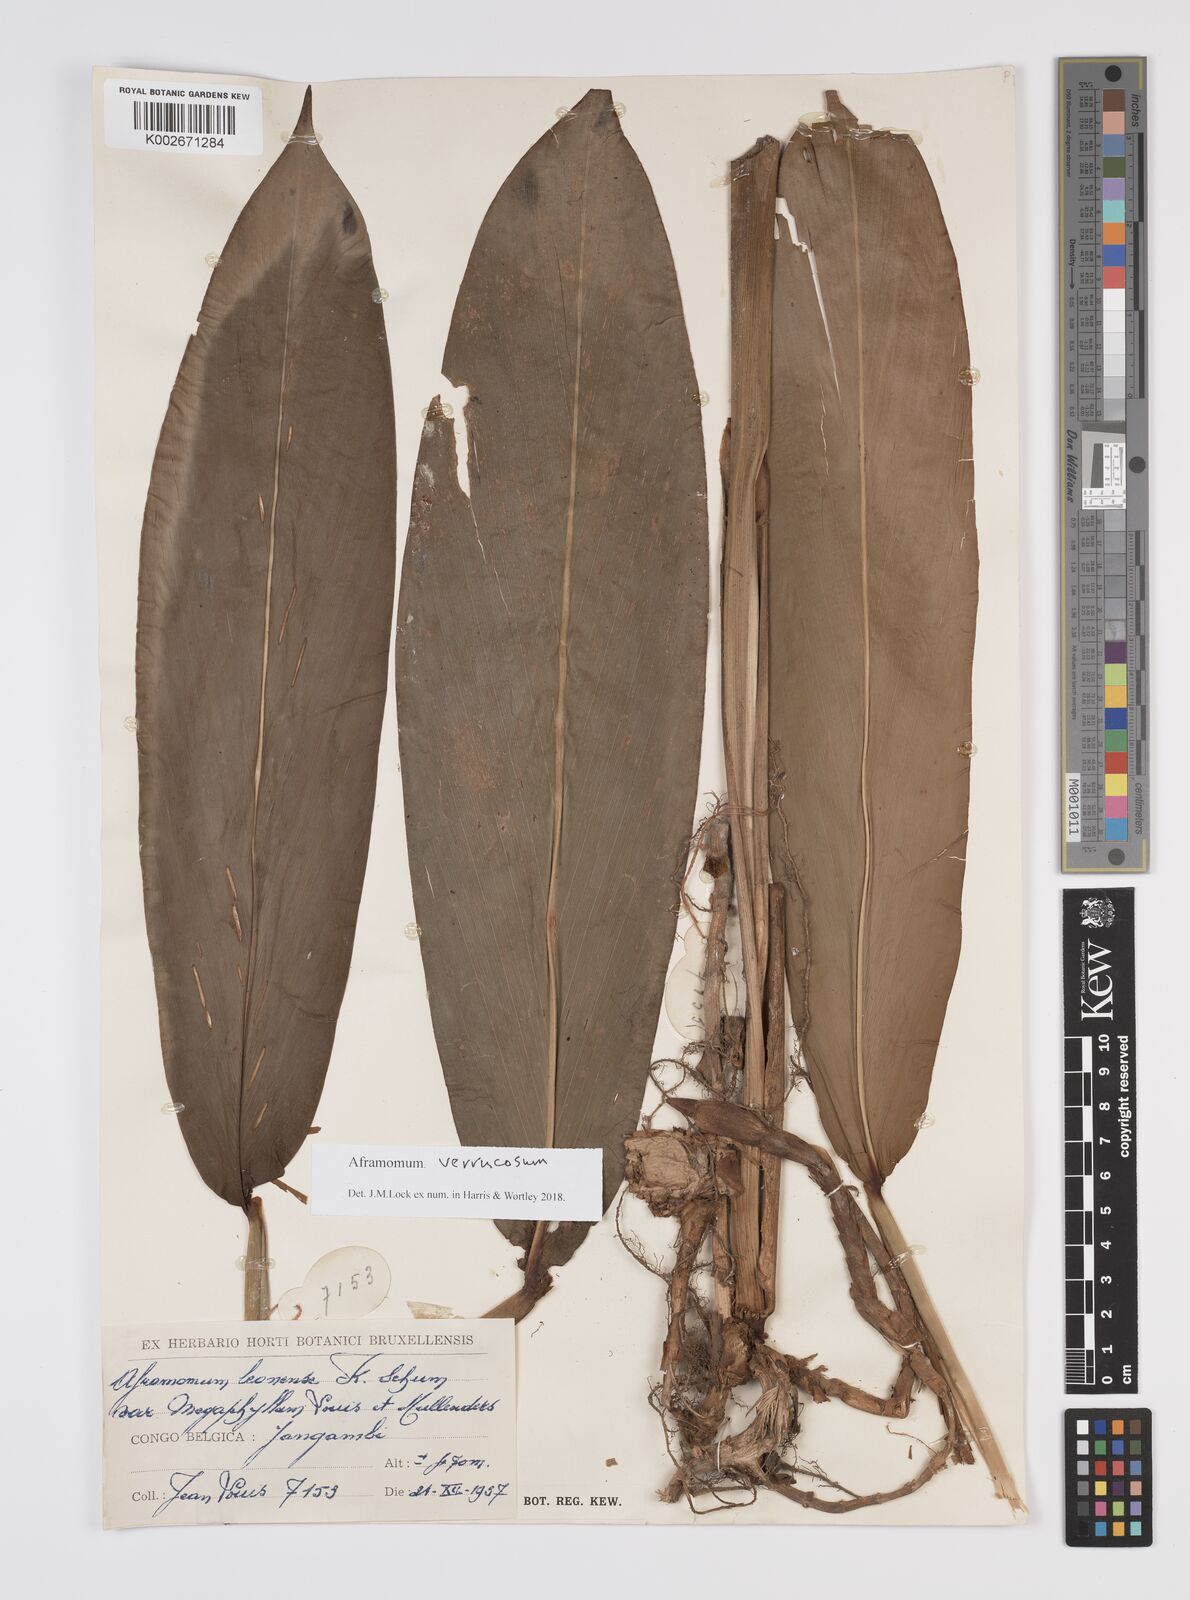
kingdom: Plantae
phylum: Tracheophyta
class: Liliopsida
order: Zingiberales
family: Zingiberaceae
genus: Aframomum
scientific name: Aframomum verrucosum
